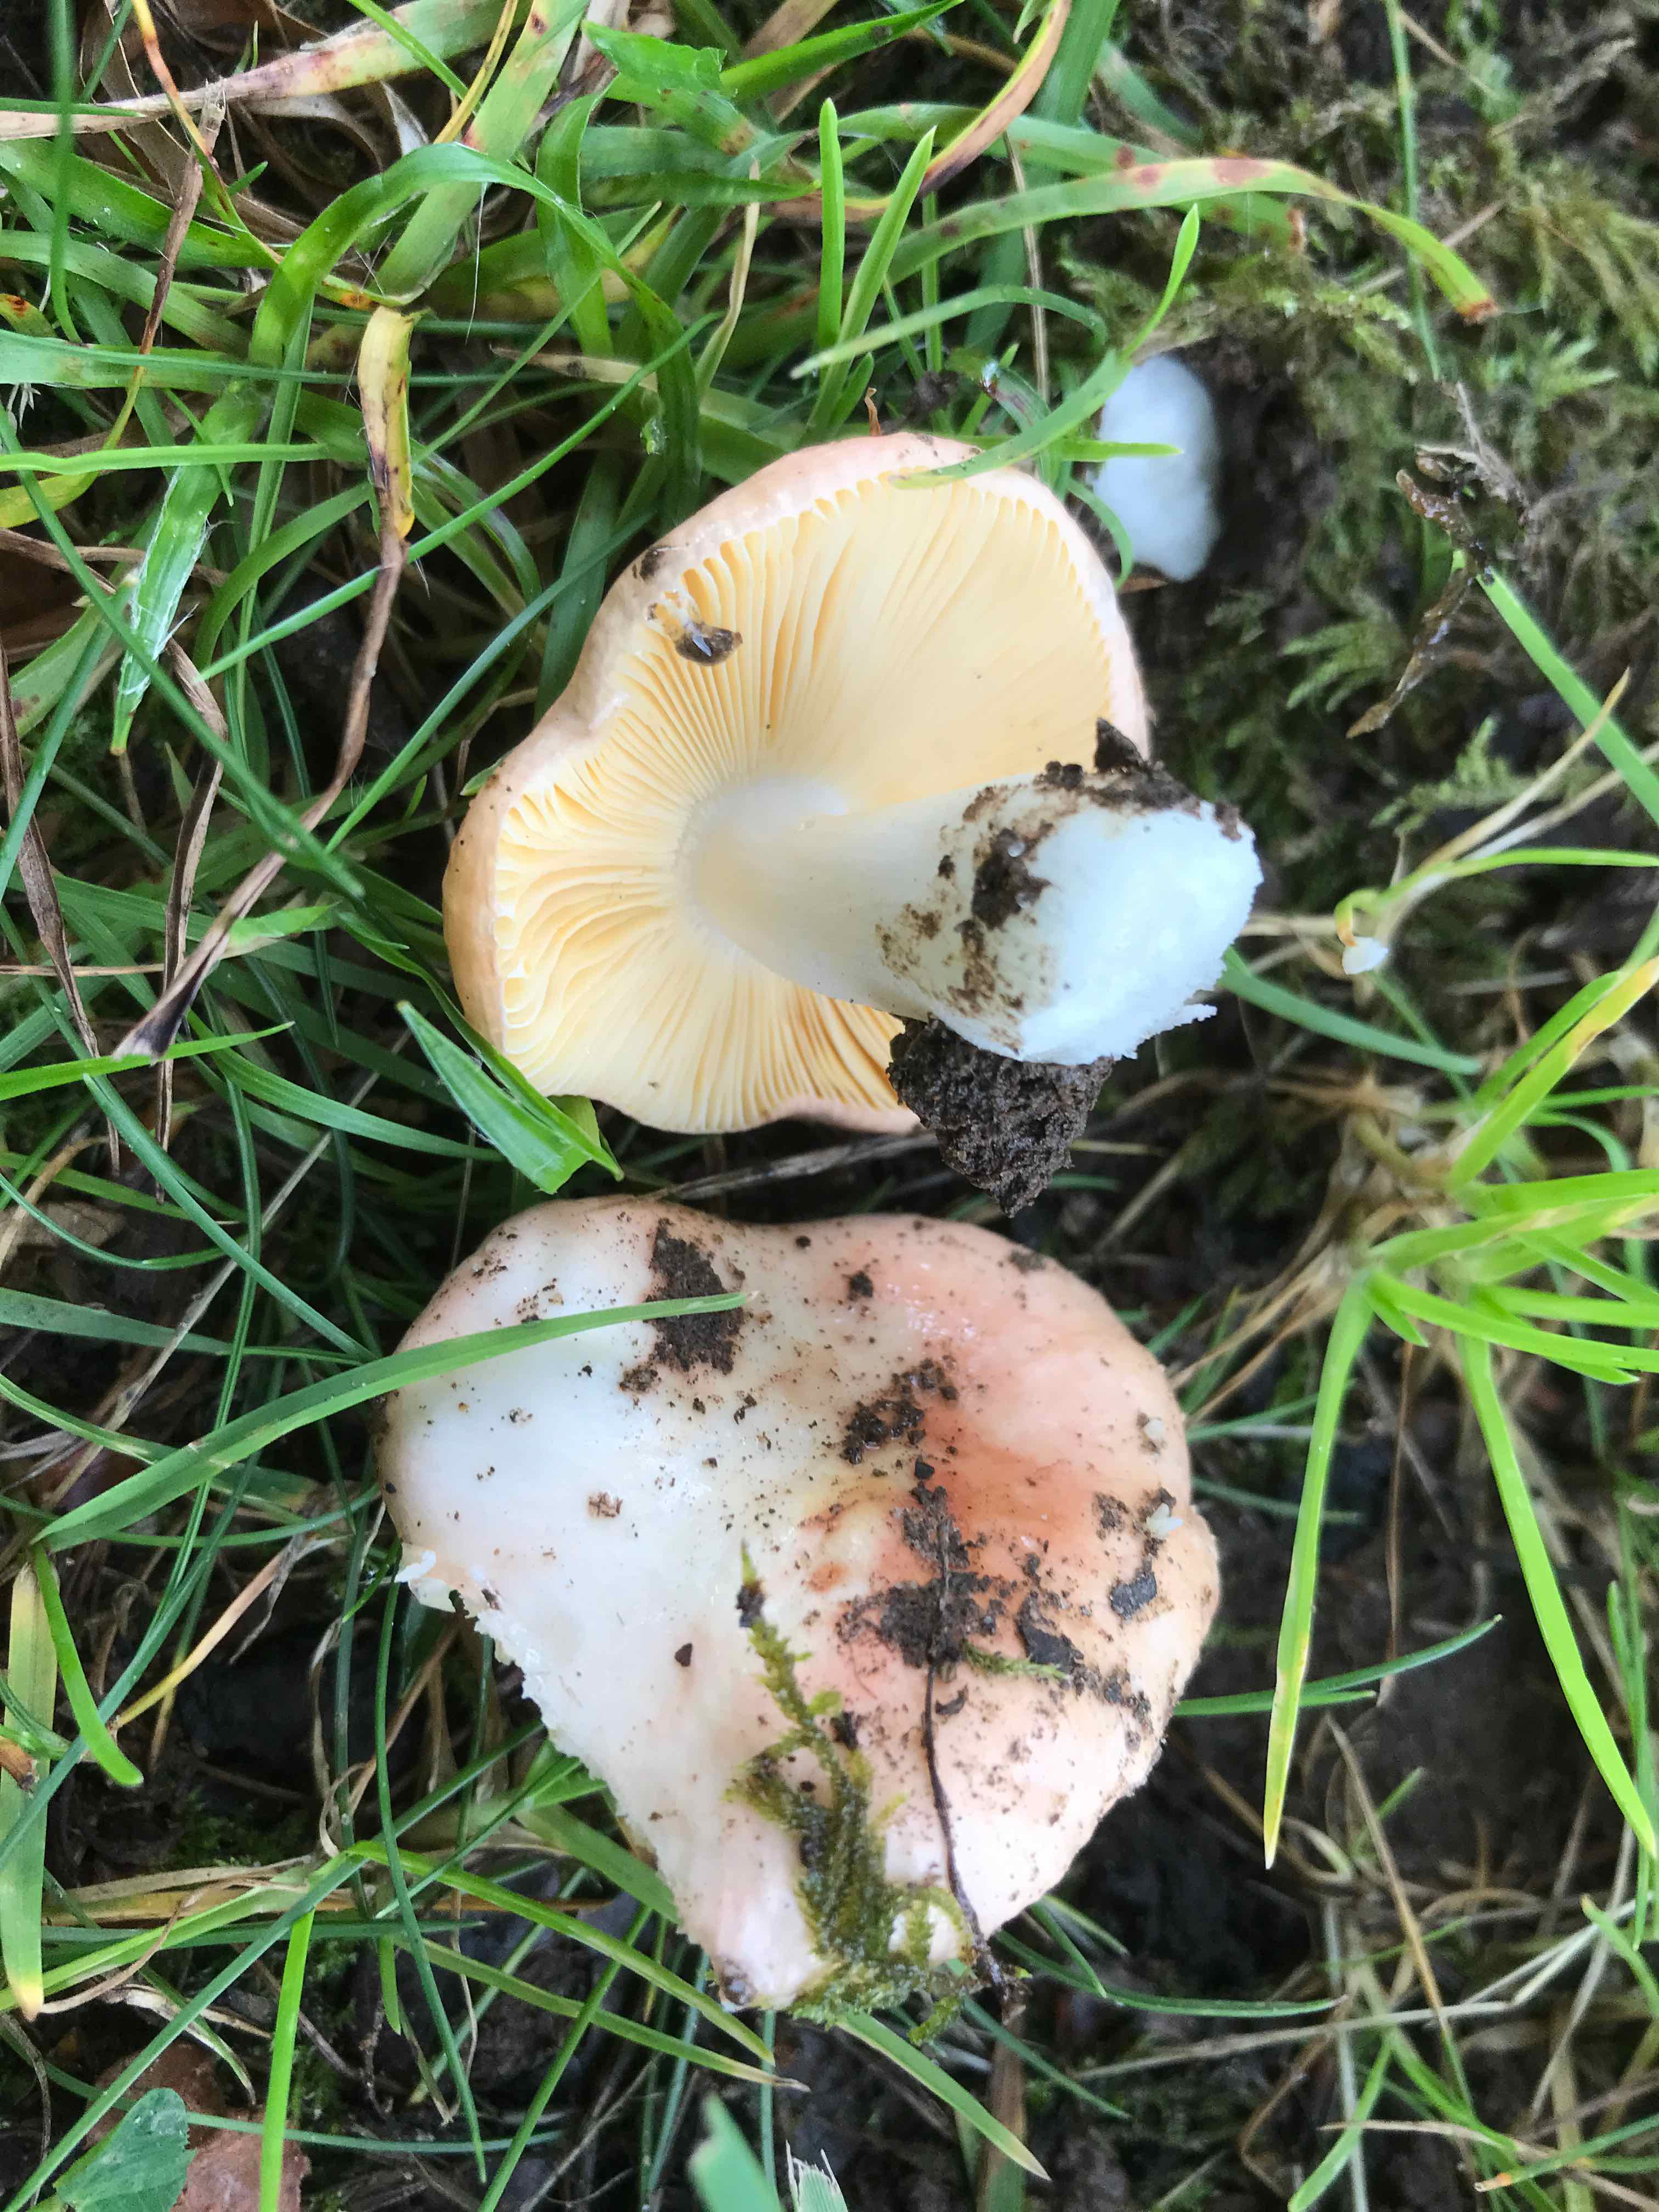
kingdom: Fungi
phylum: Basidiomycota
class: Agaricomycetes
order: Russulales
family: Russulaceae
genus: Russula
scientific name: Russula odorata
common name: duft-skørhat
